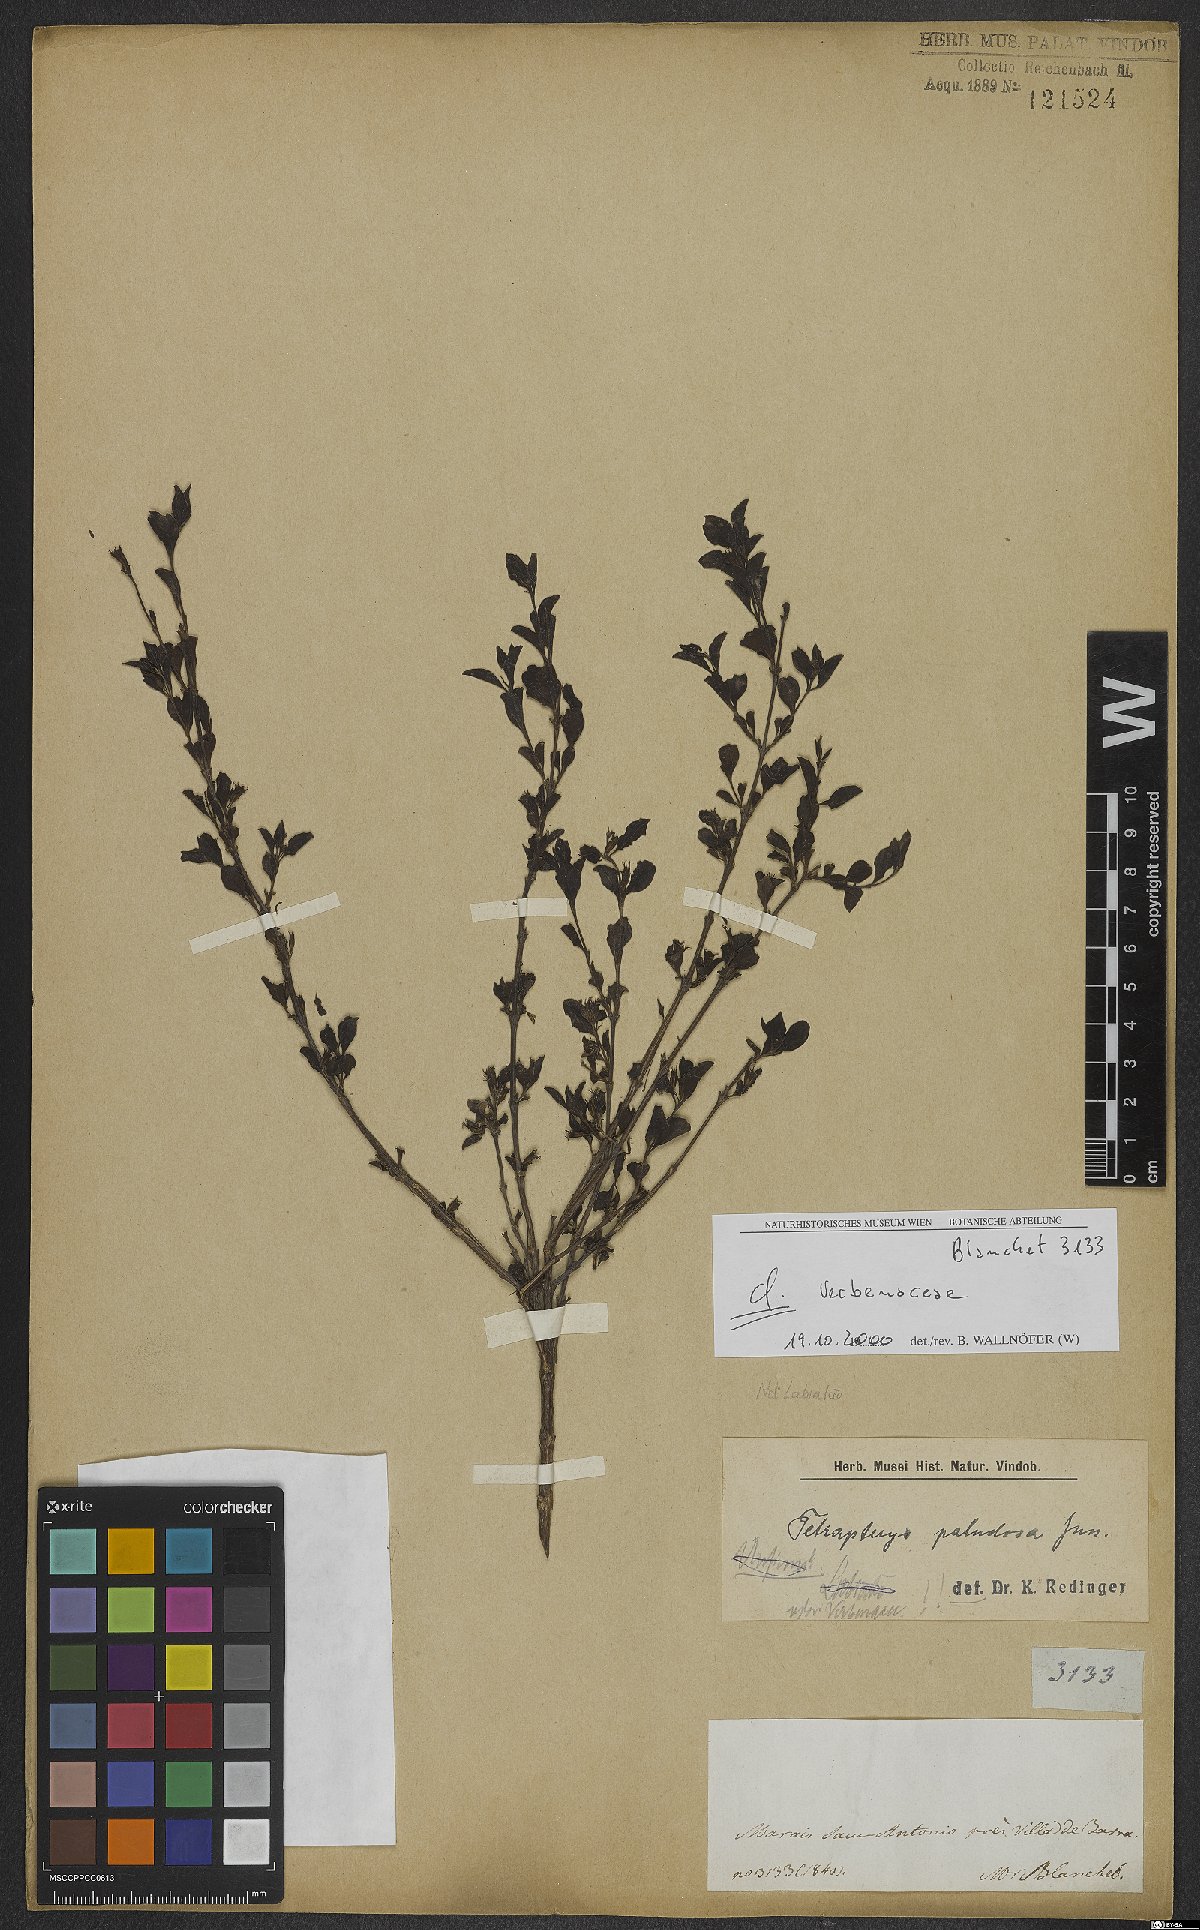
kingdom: Plantae
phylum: Tracheophyta
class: Magnoliopsida
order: Lamiales
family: Verbenaceae
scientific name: Verbenaceae
